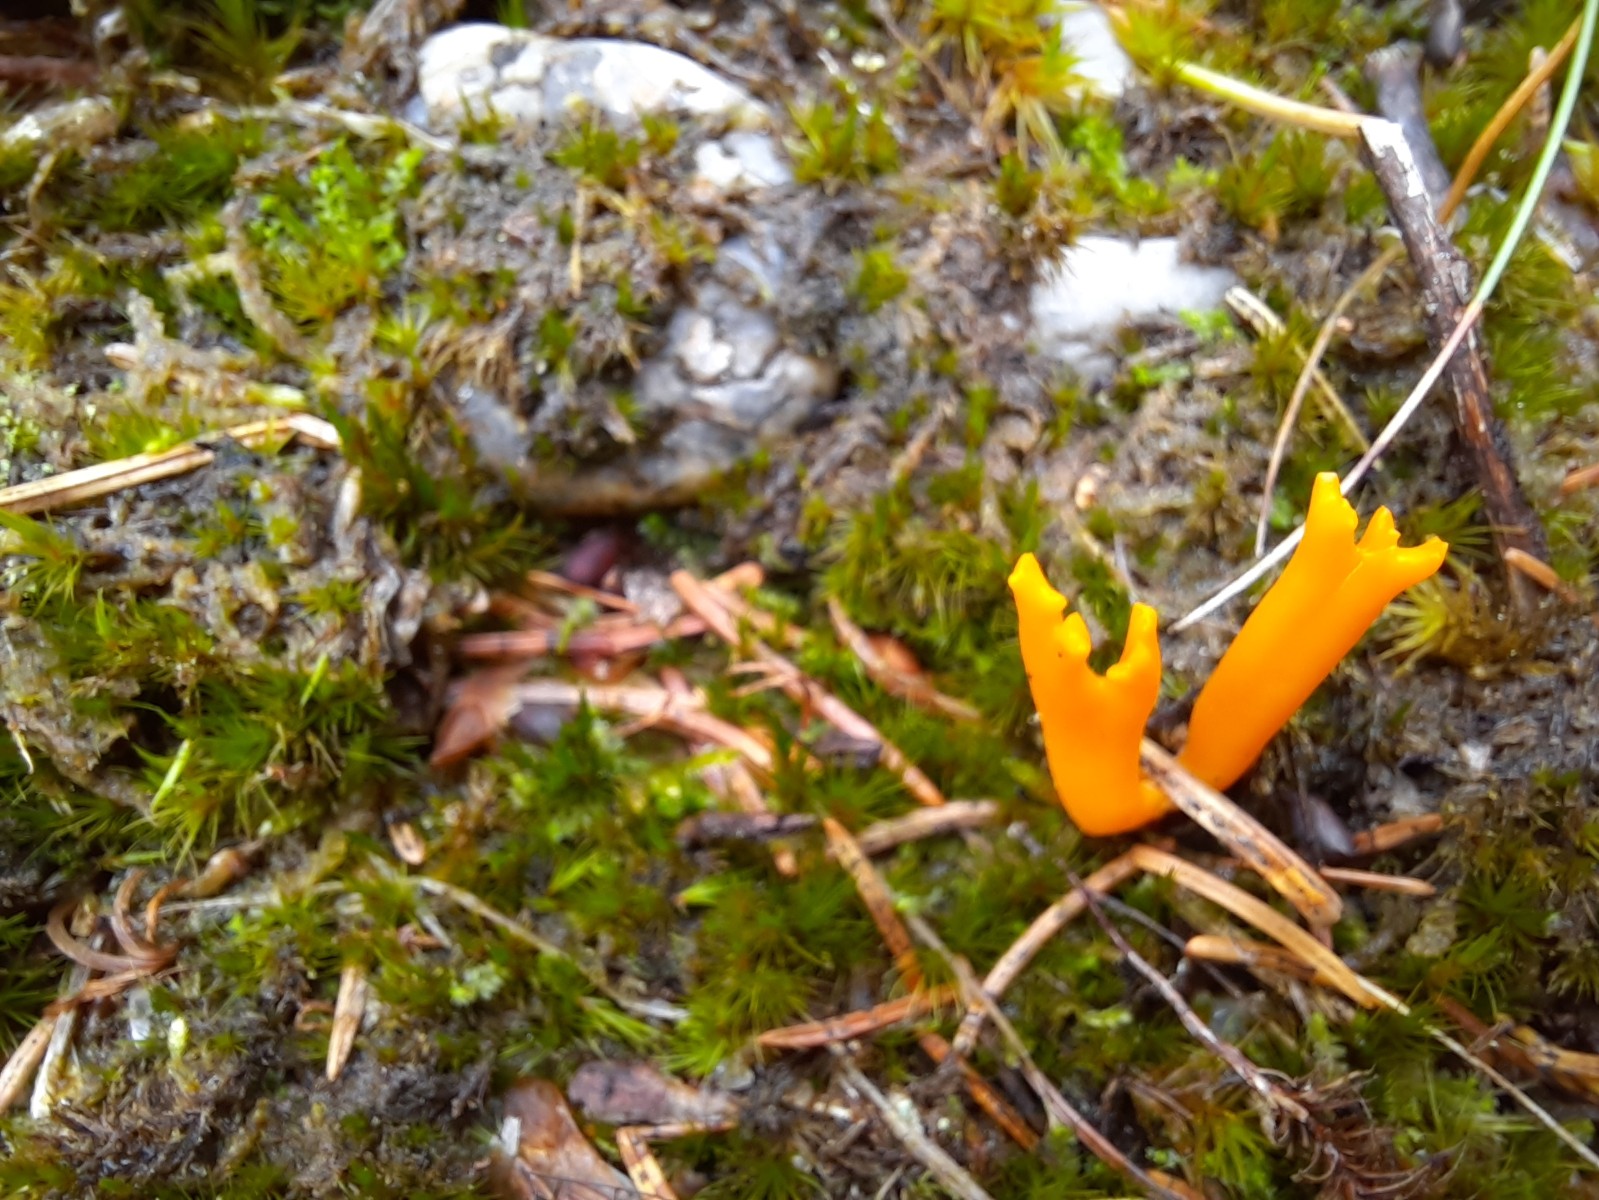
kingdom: Fungi
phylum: Basidiomycota
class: Dacrymycetes
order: Dacrymycetales
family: Dacrymycetaceae
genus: Calocera
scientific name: Calocera viscosa
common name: almindelig guldgaffel
